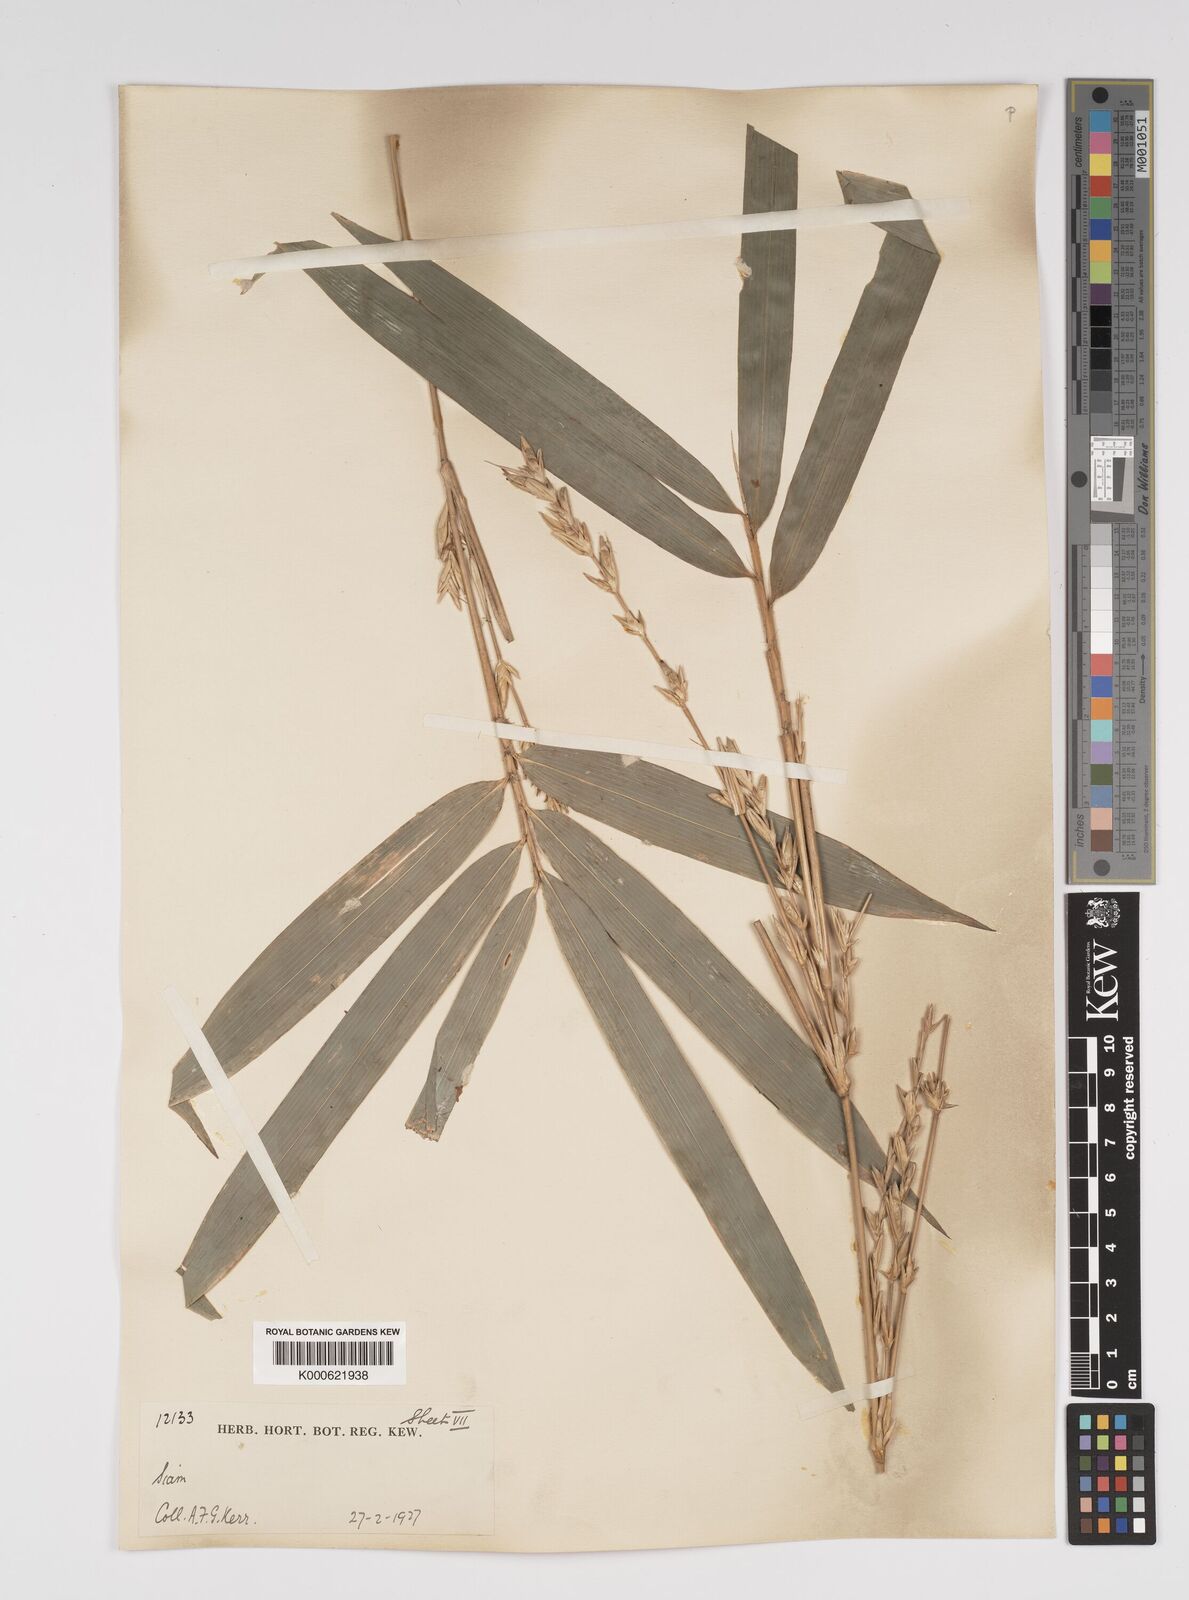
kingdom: Plantae
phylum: Tracheophyta
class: Liliopsida
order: Poales
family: Poaceae
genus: Bambusa
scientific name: Bambusa
